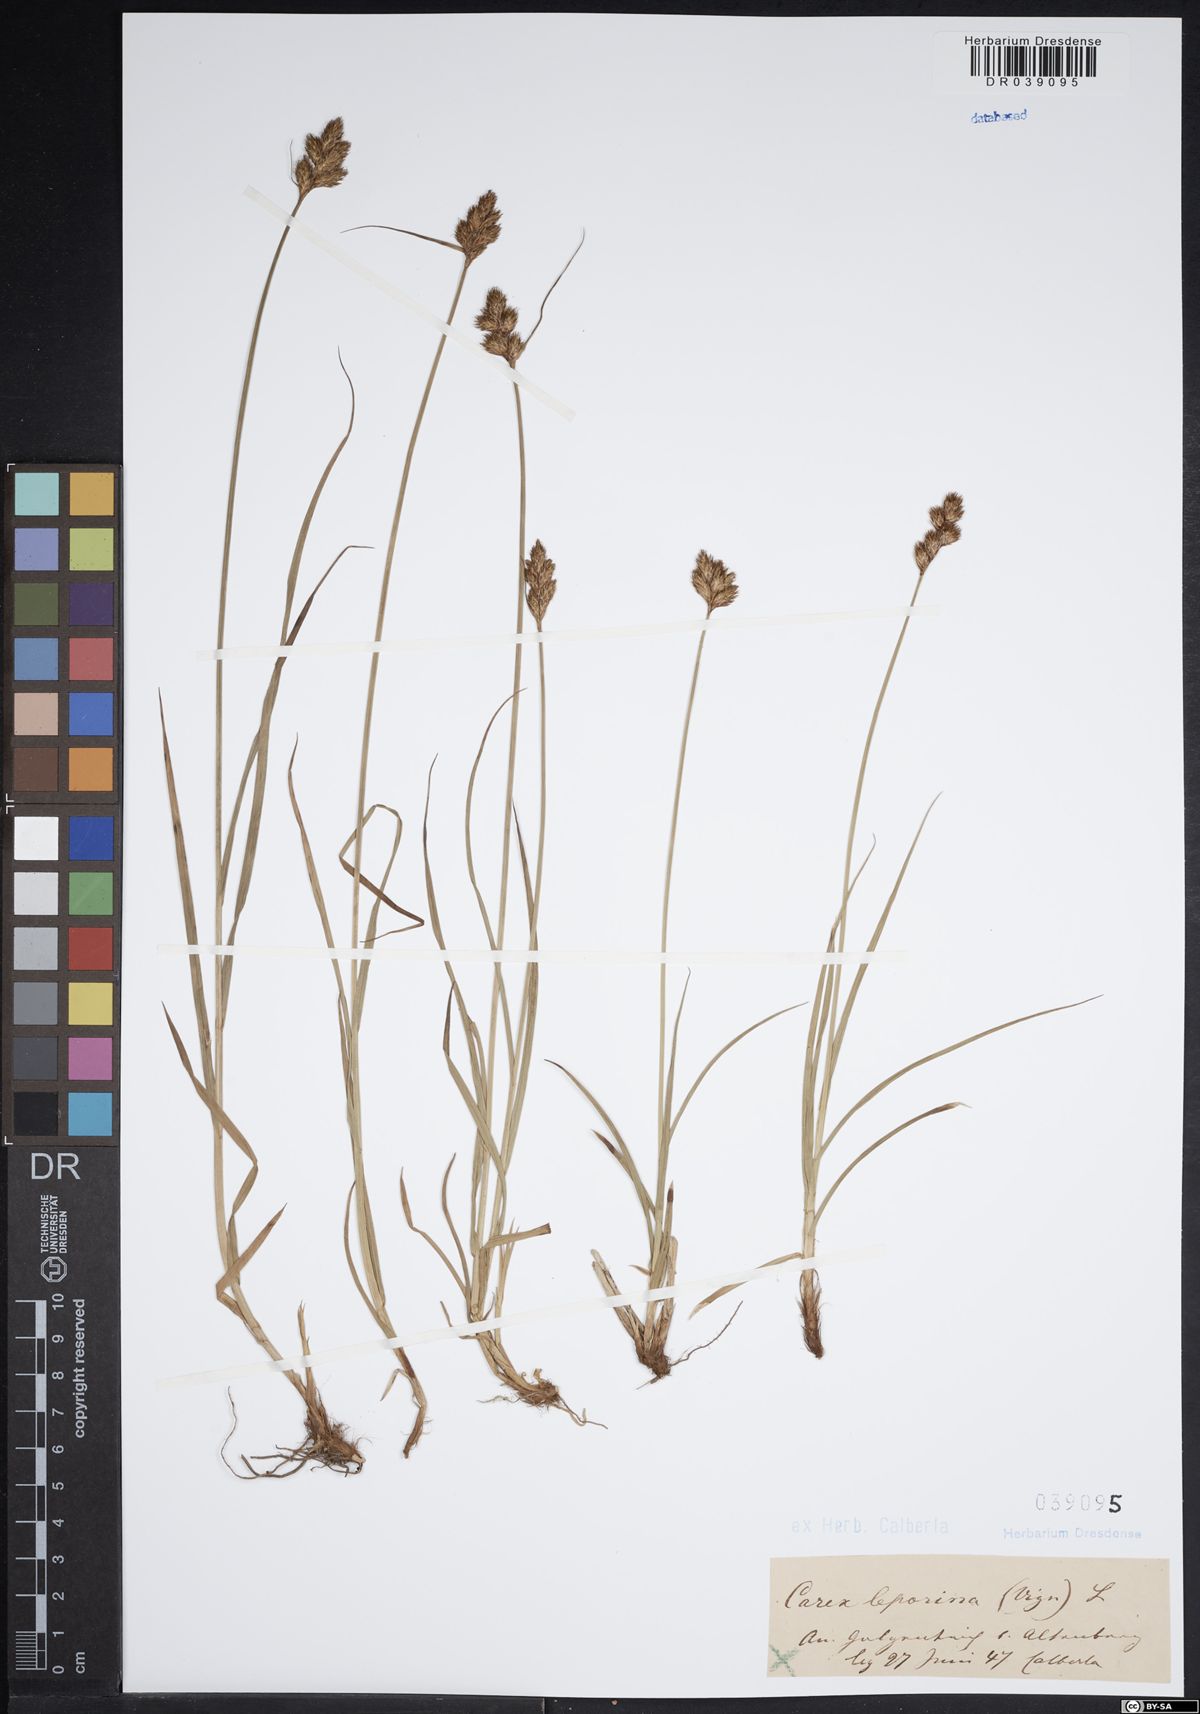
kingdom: Plantae
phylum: Tracheophyta
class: Liliopsida
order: Poales
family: Cyperaceae
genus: Carex
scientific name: Carex leporina
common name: Oval sedge
